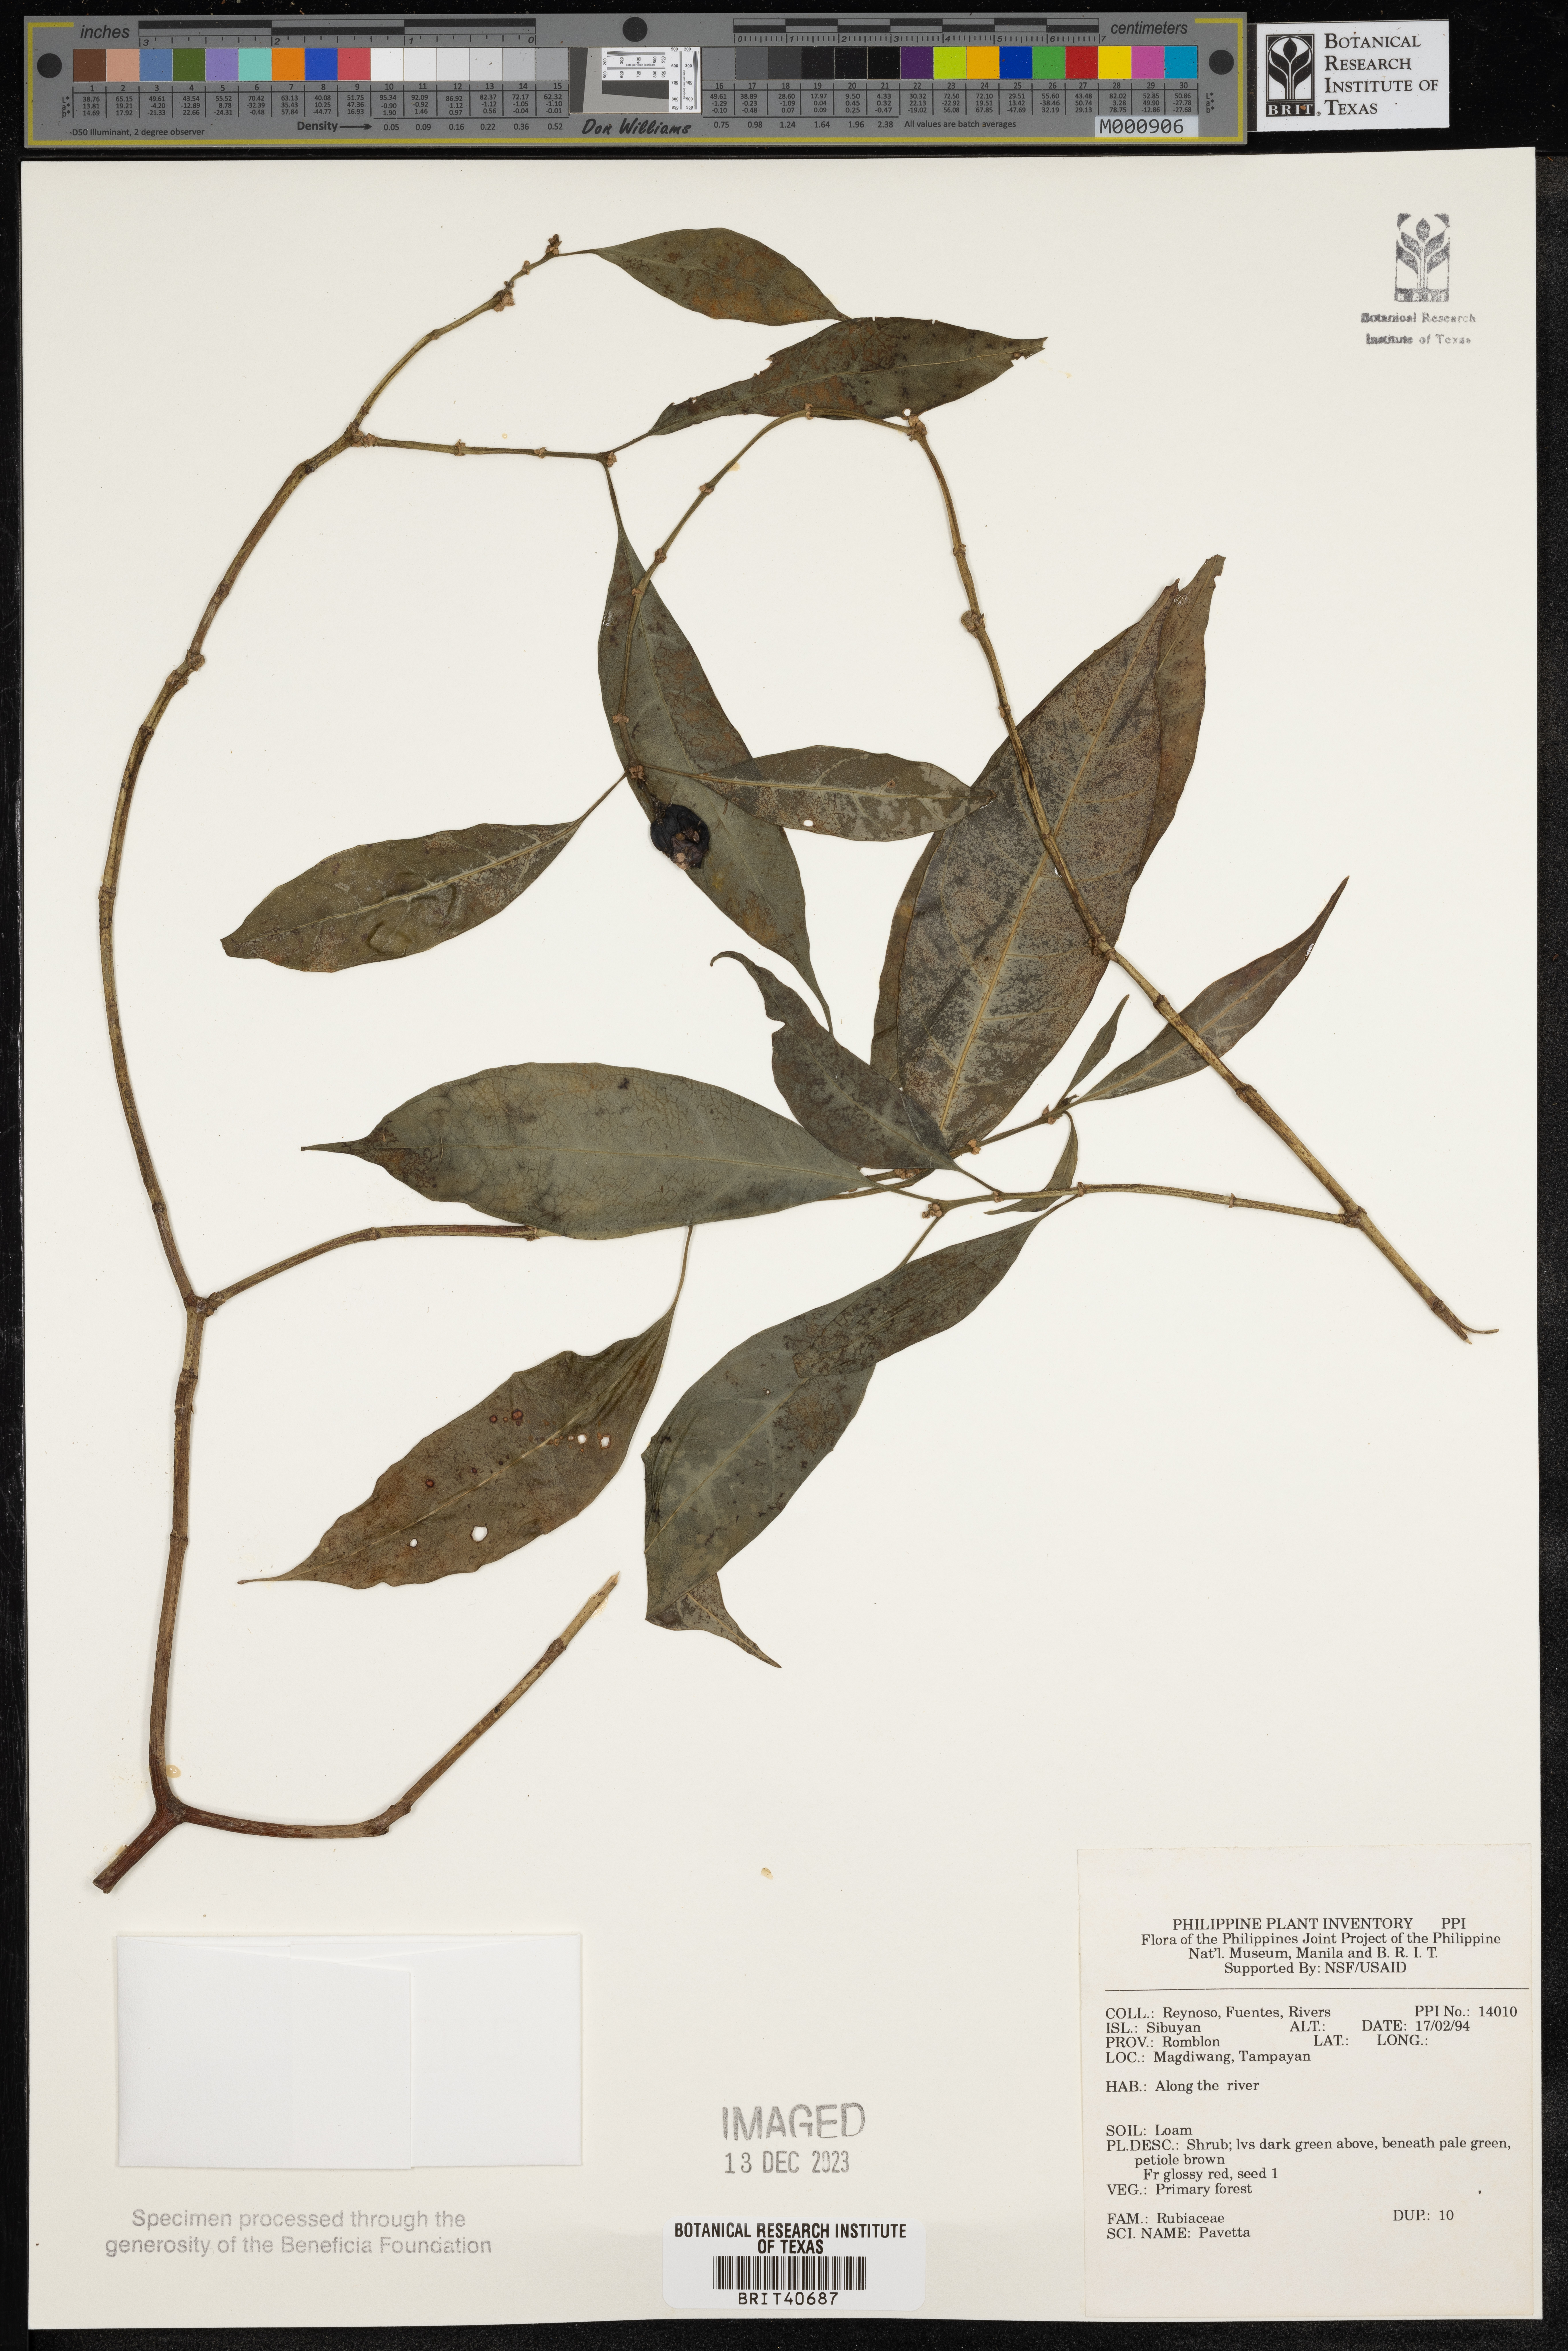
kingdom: Plantae
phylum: Tracheophyta
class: Magnoliopsida
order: Gentianales
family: Rubiaceae
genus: Pavetta
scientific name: Pavetta
